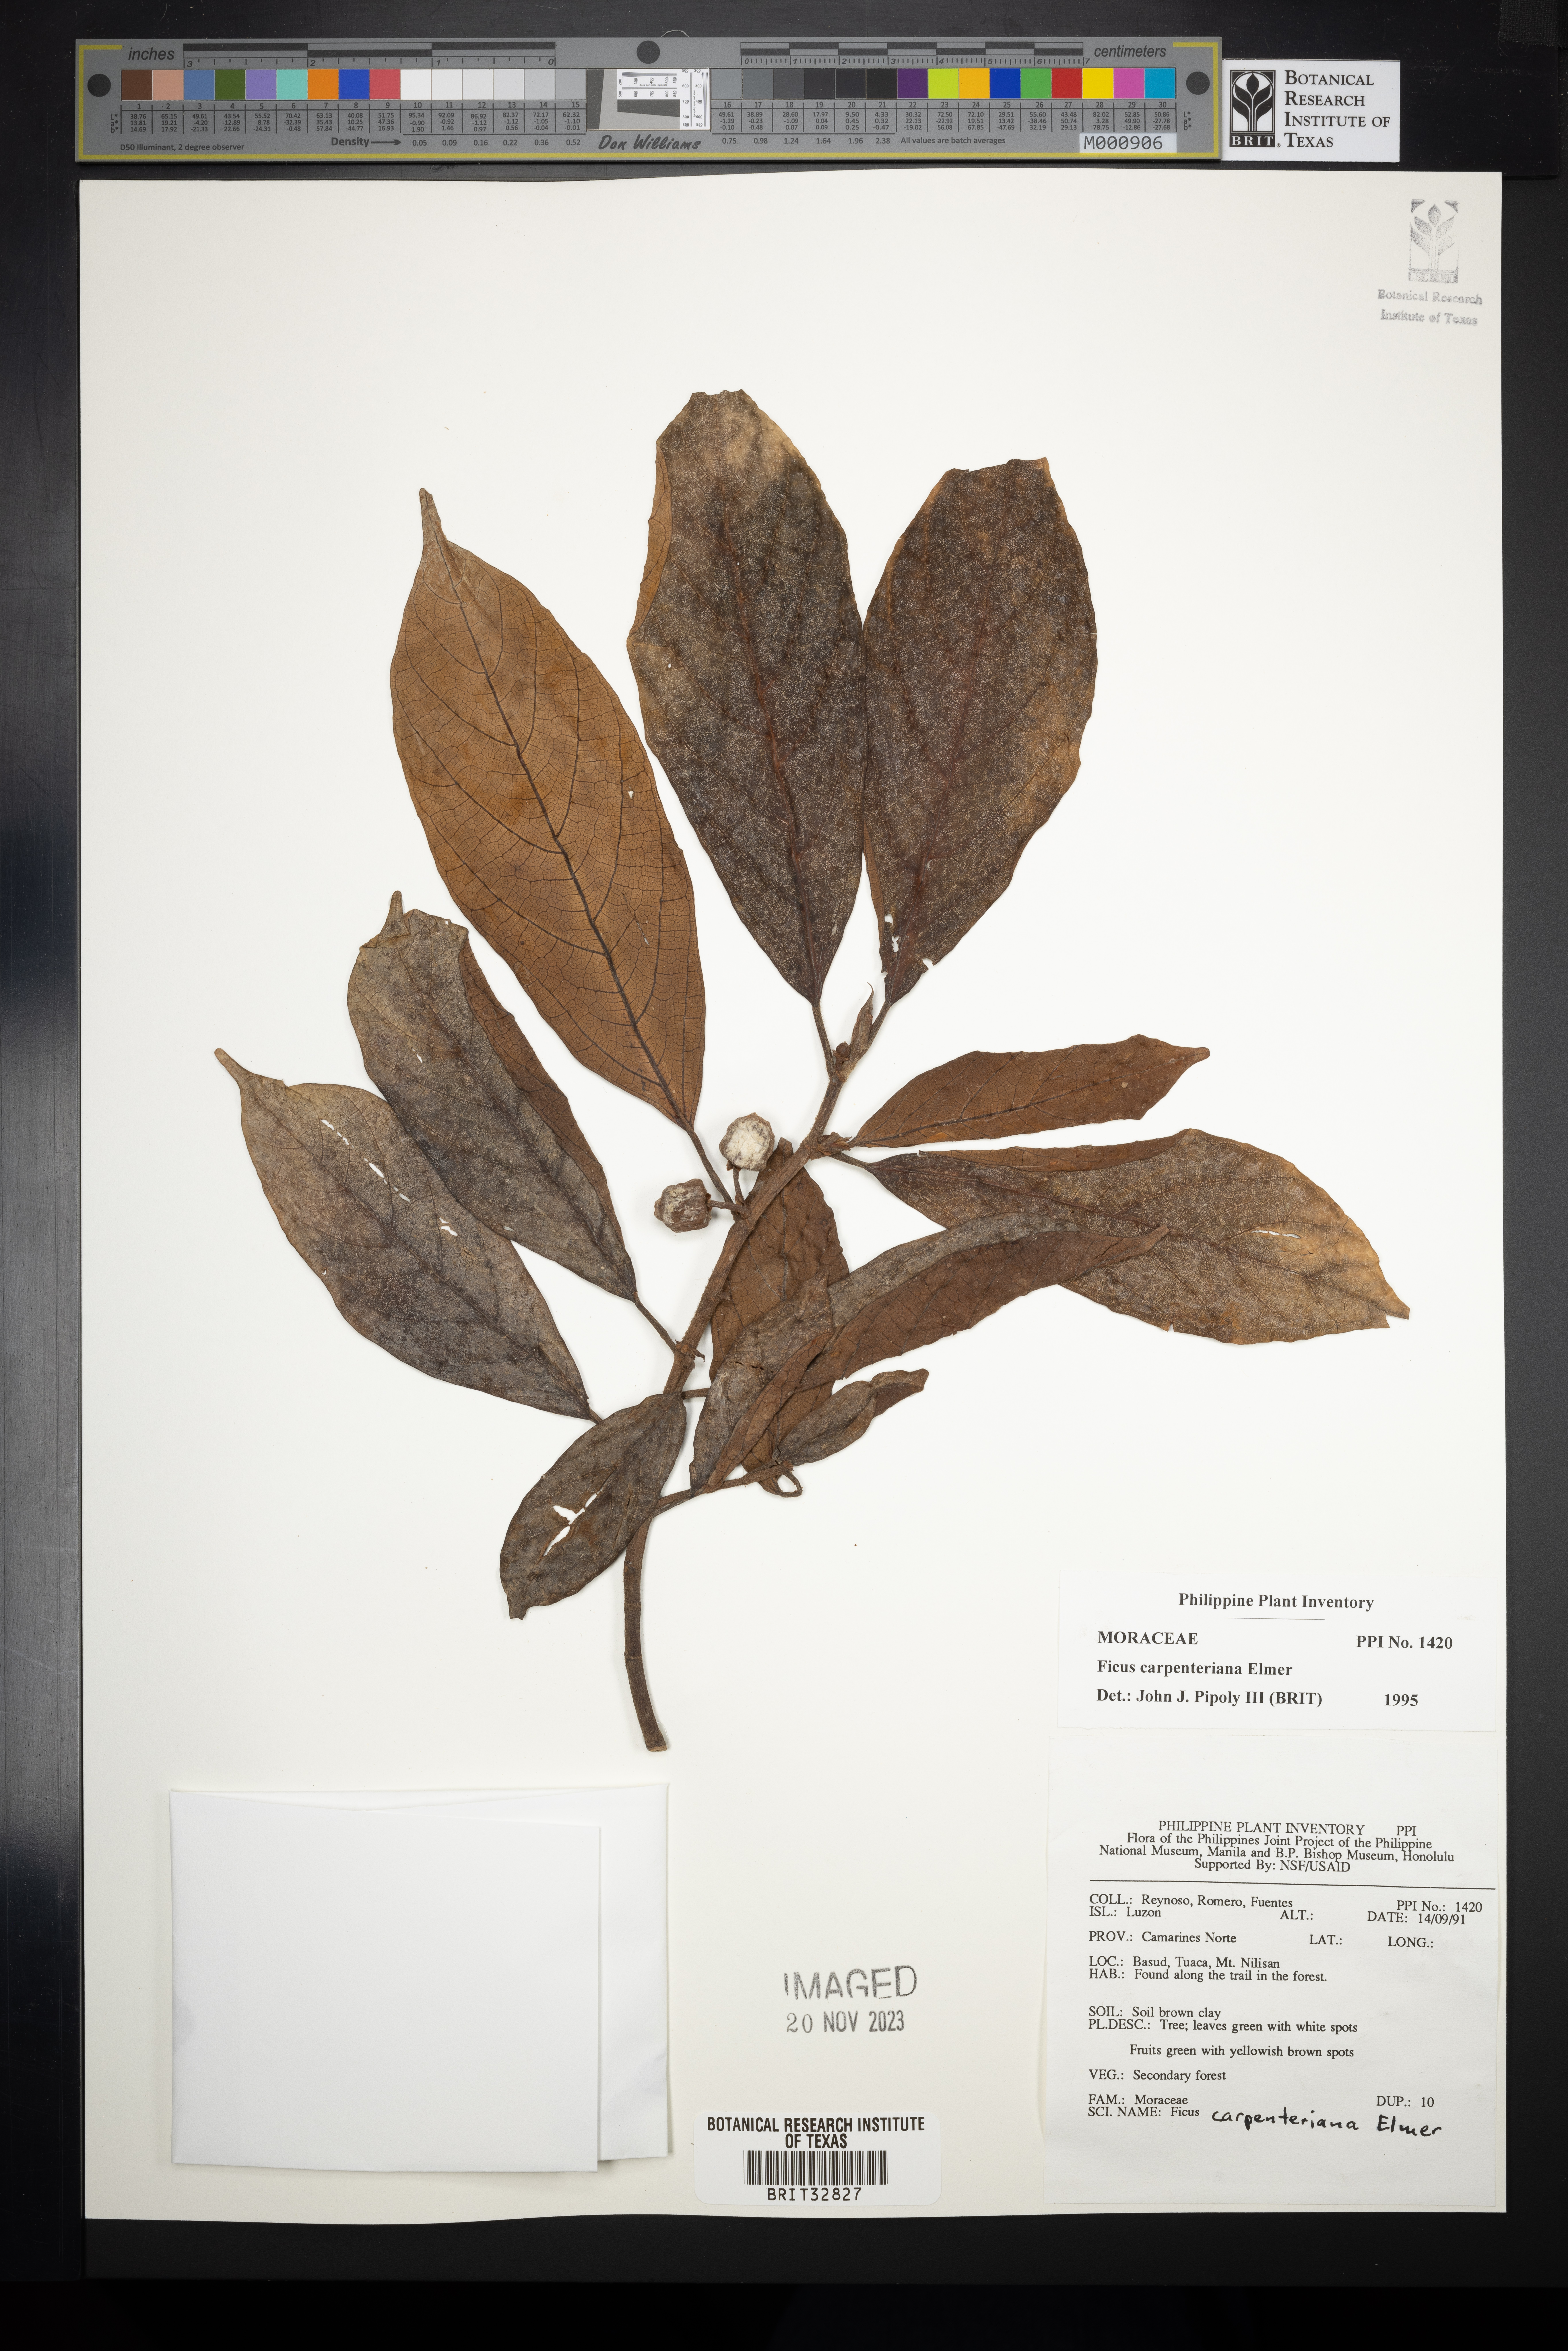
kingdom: Plantae
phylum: Tracheophyta
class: Magnoliopsida
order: Rosales
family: Moraceae
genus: Ficus
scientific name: Ficus carpenteriana
